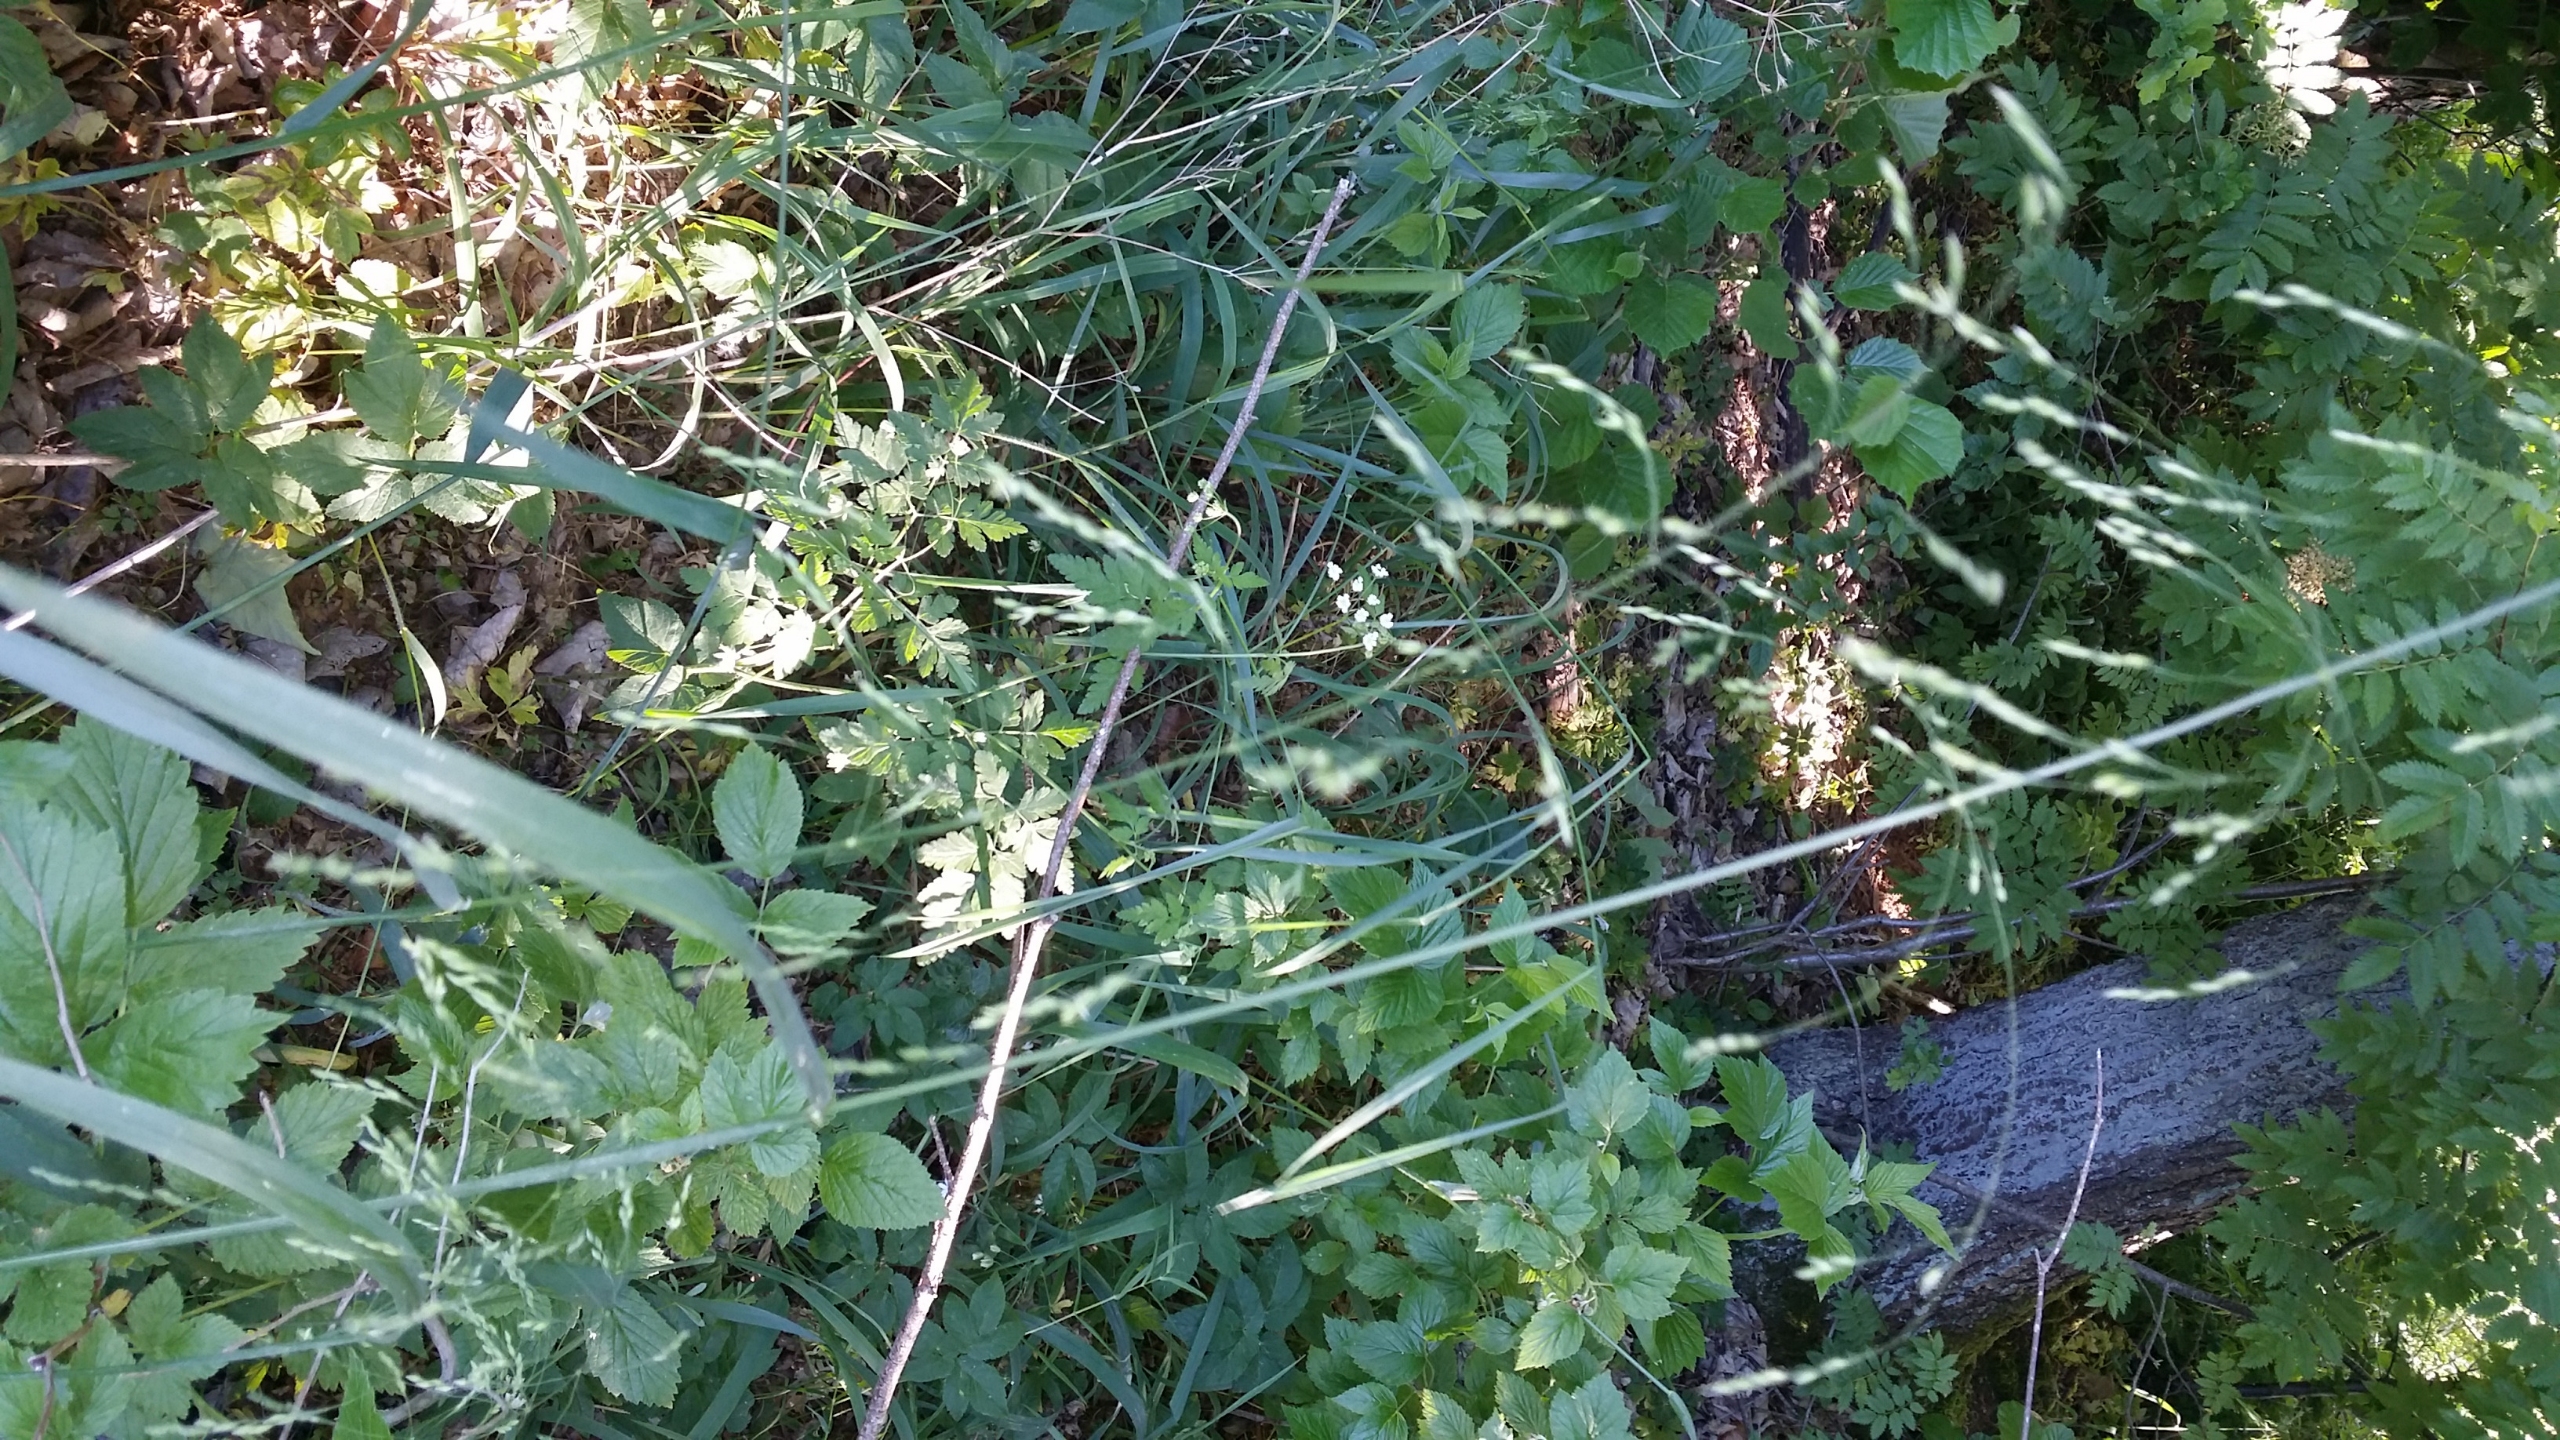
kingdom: Plantae
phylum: Tracheophyta
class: Liliopsida
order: Poales
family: Poaceae
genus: Milium
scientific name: Milium effusum
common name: Miliegræs
